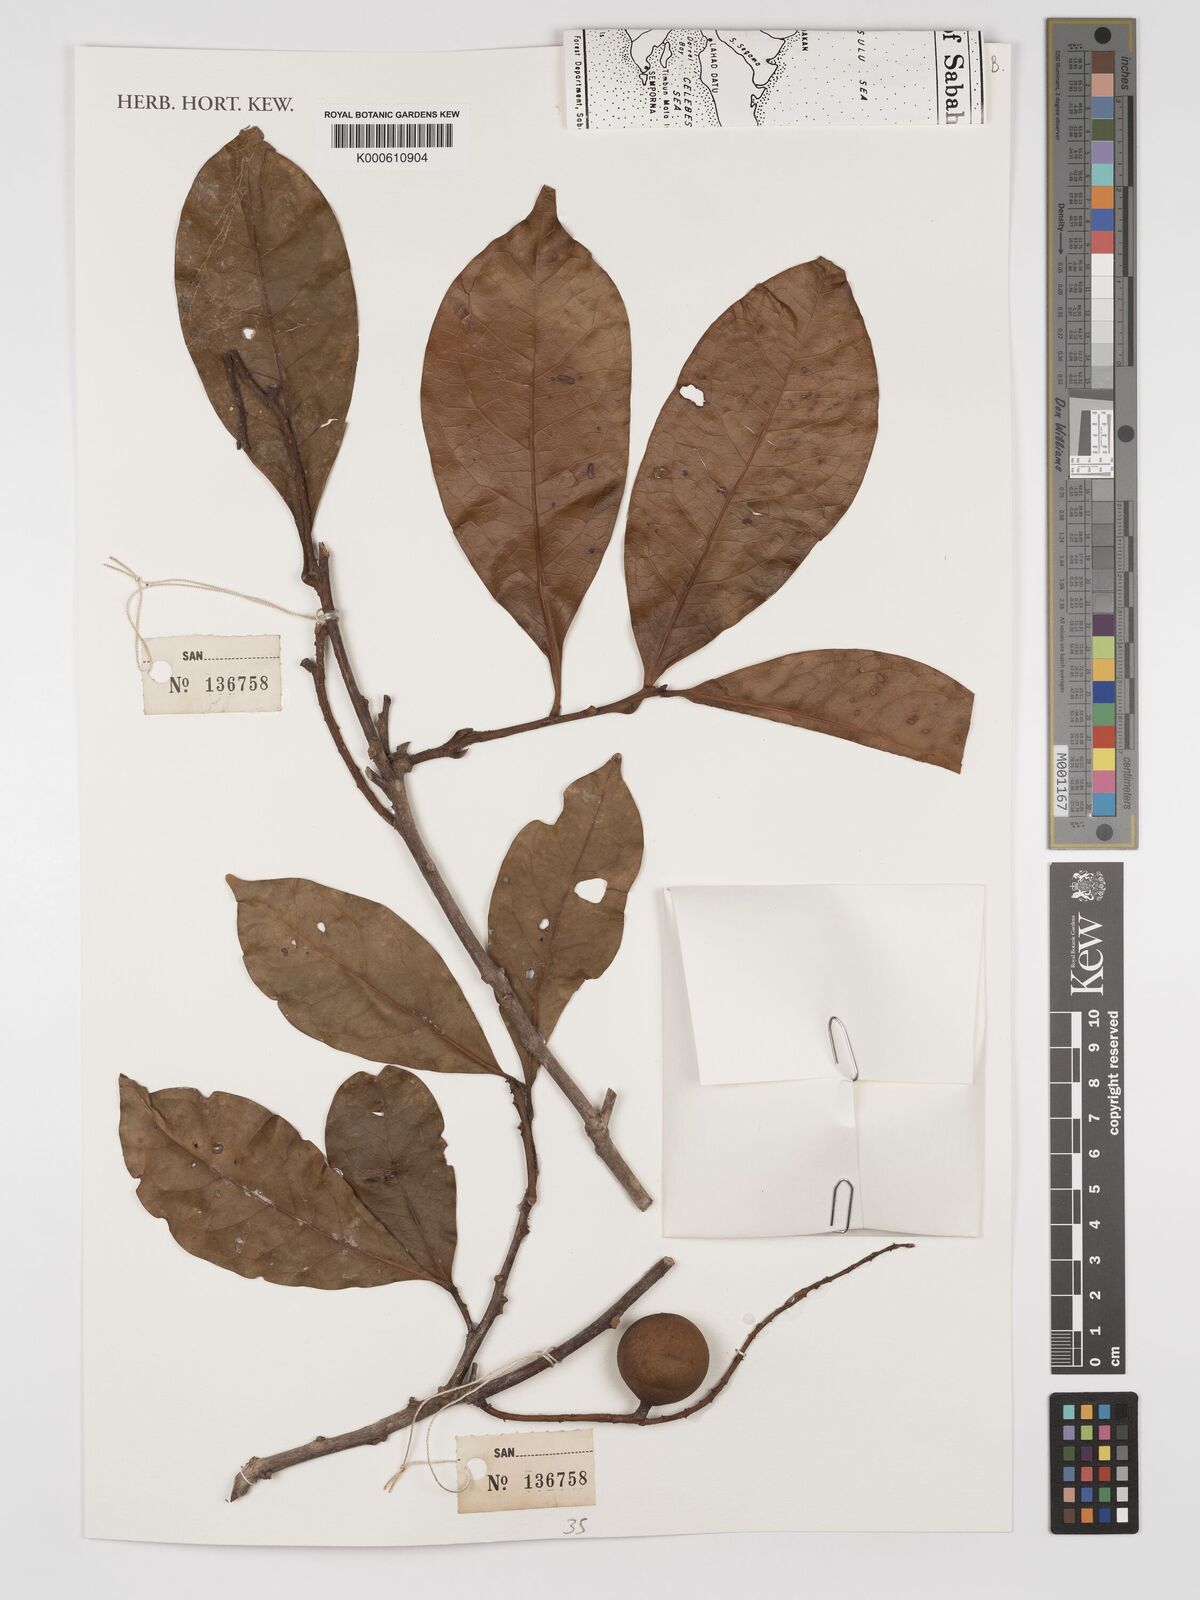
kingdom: Plantae
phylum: Tracheophyta
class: Magnoliopsida
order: Proteales
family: Proteaceae
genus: Helicia
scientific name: Helicia
